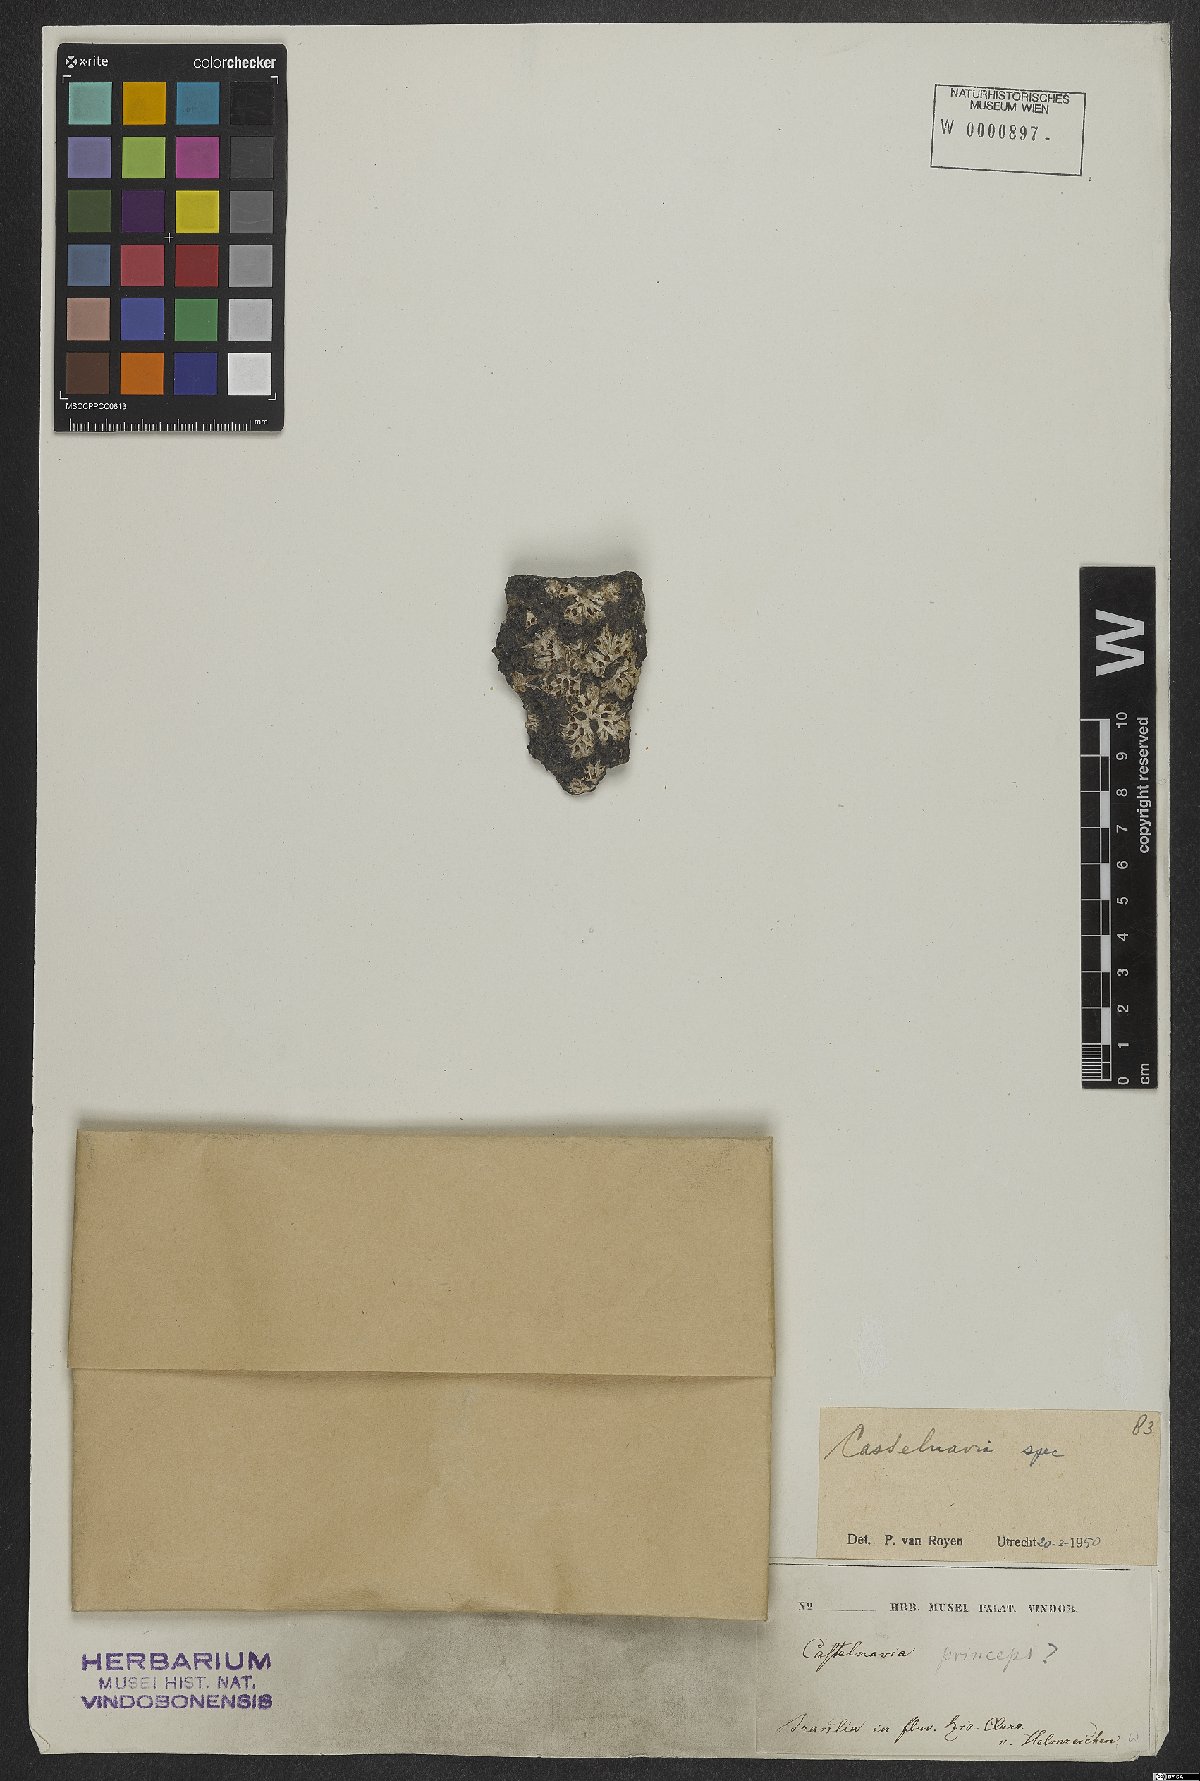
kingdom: Plantae
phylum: Tracheophyta
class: Magnoliopsida
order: Malpighiales
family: Podostemaceae
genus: Castelnavia
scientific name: Castelnavia princeps
